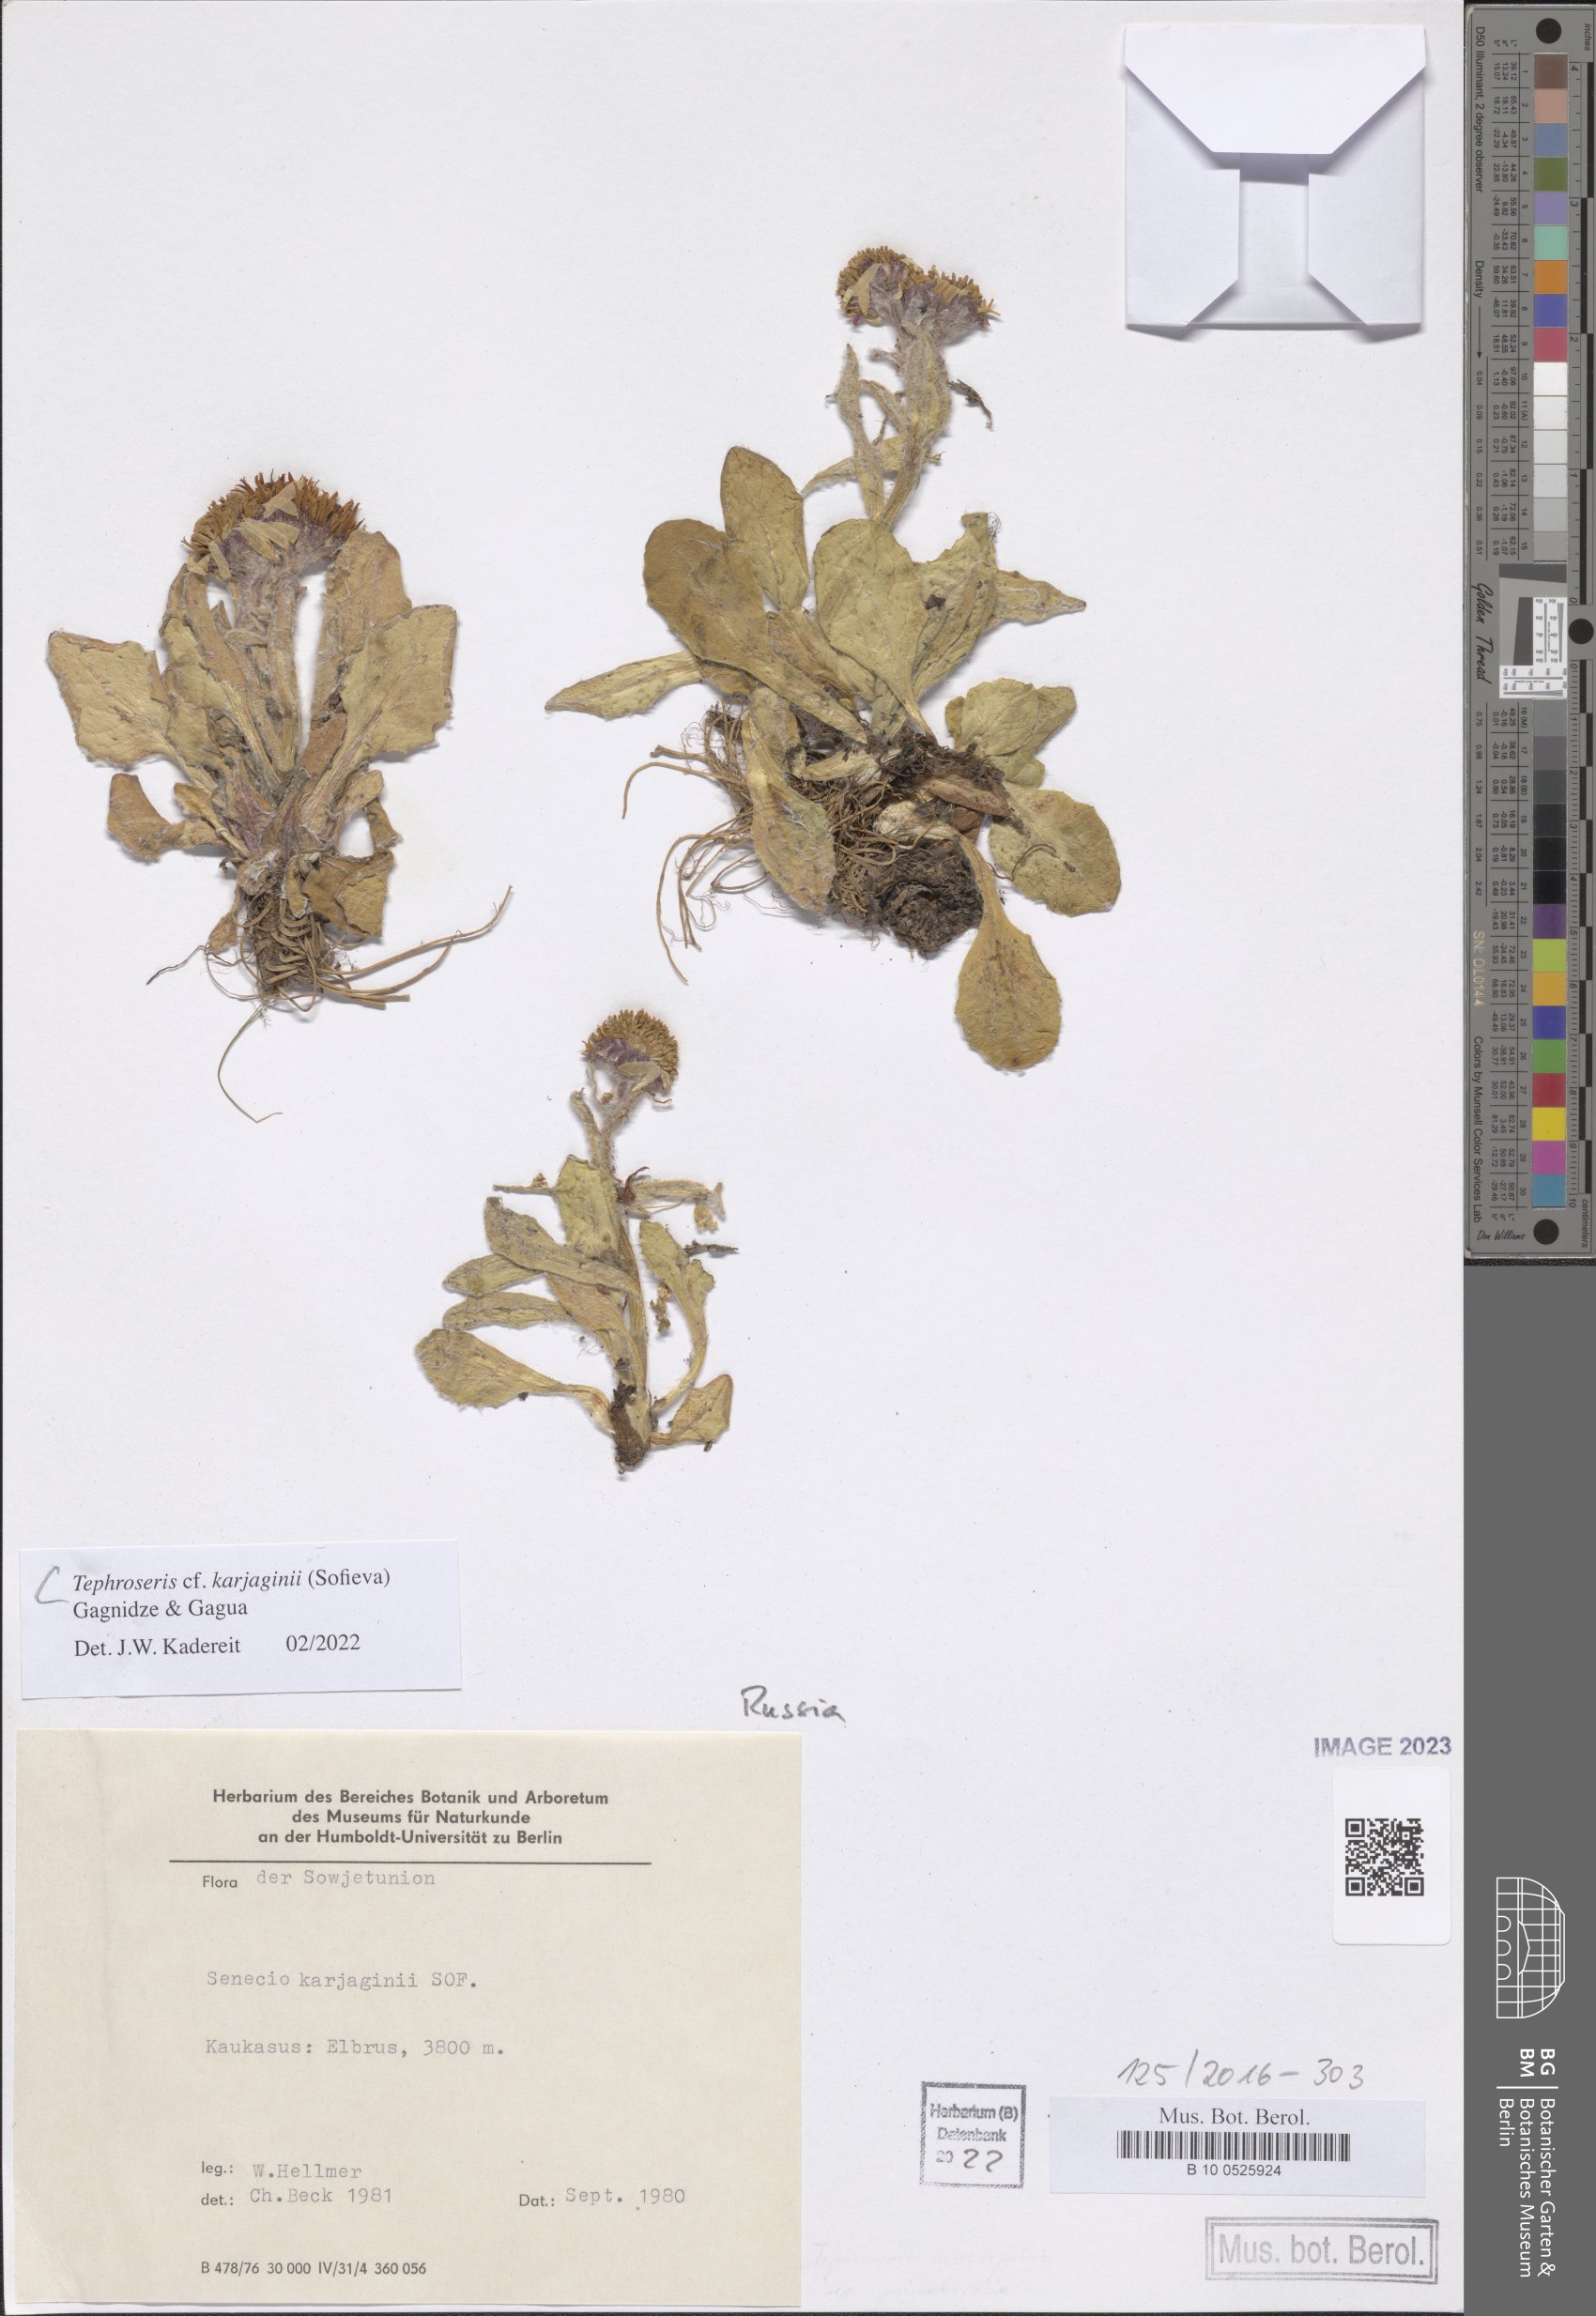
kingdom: Plantae
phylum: Tracheophyta
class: Magnoliopsida
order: Asterales
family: Asteraceae
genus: Tephroseris
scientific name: Tephroseris integrifolia
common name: Field fleawort
